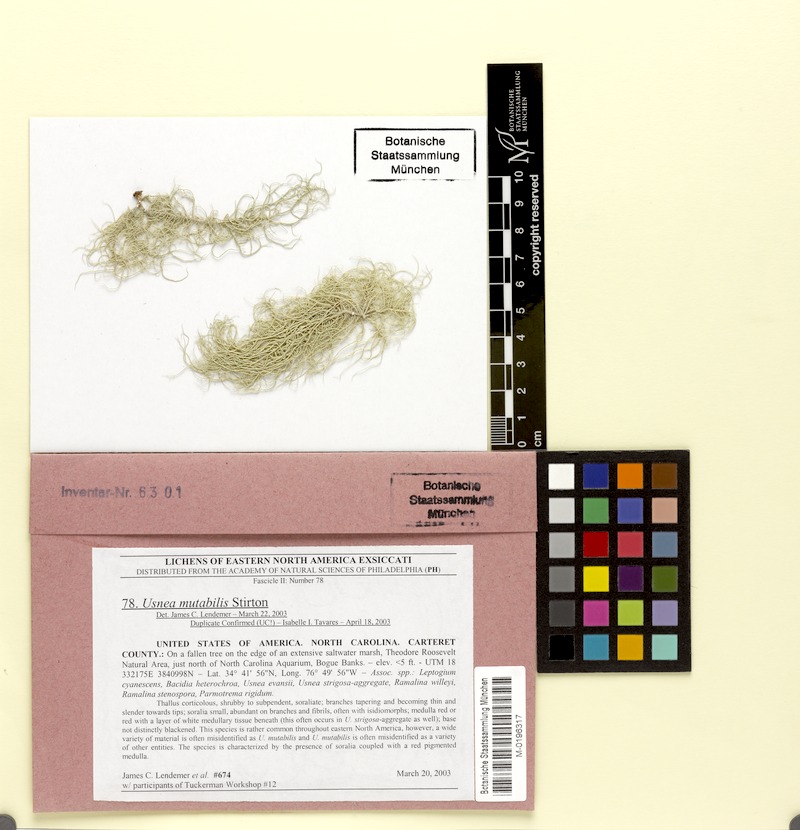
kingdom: Fungi
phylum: Ascomycota
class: Lecanoromycetes
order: Lecanorales
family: Parmeliaceae
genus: Usnea
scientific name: Usnea mutabilis
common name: Bloody beard
